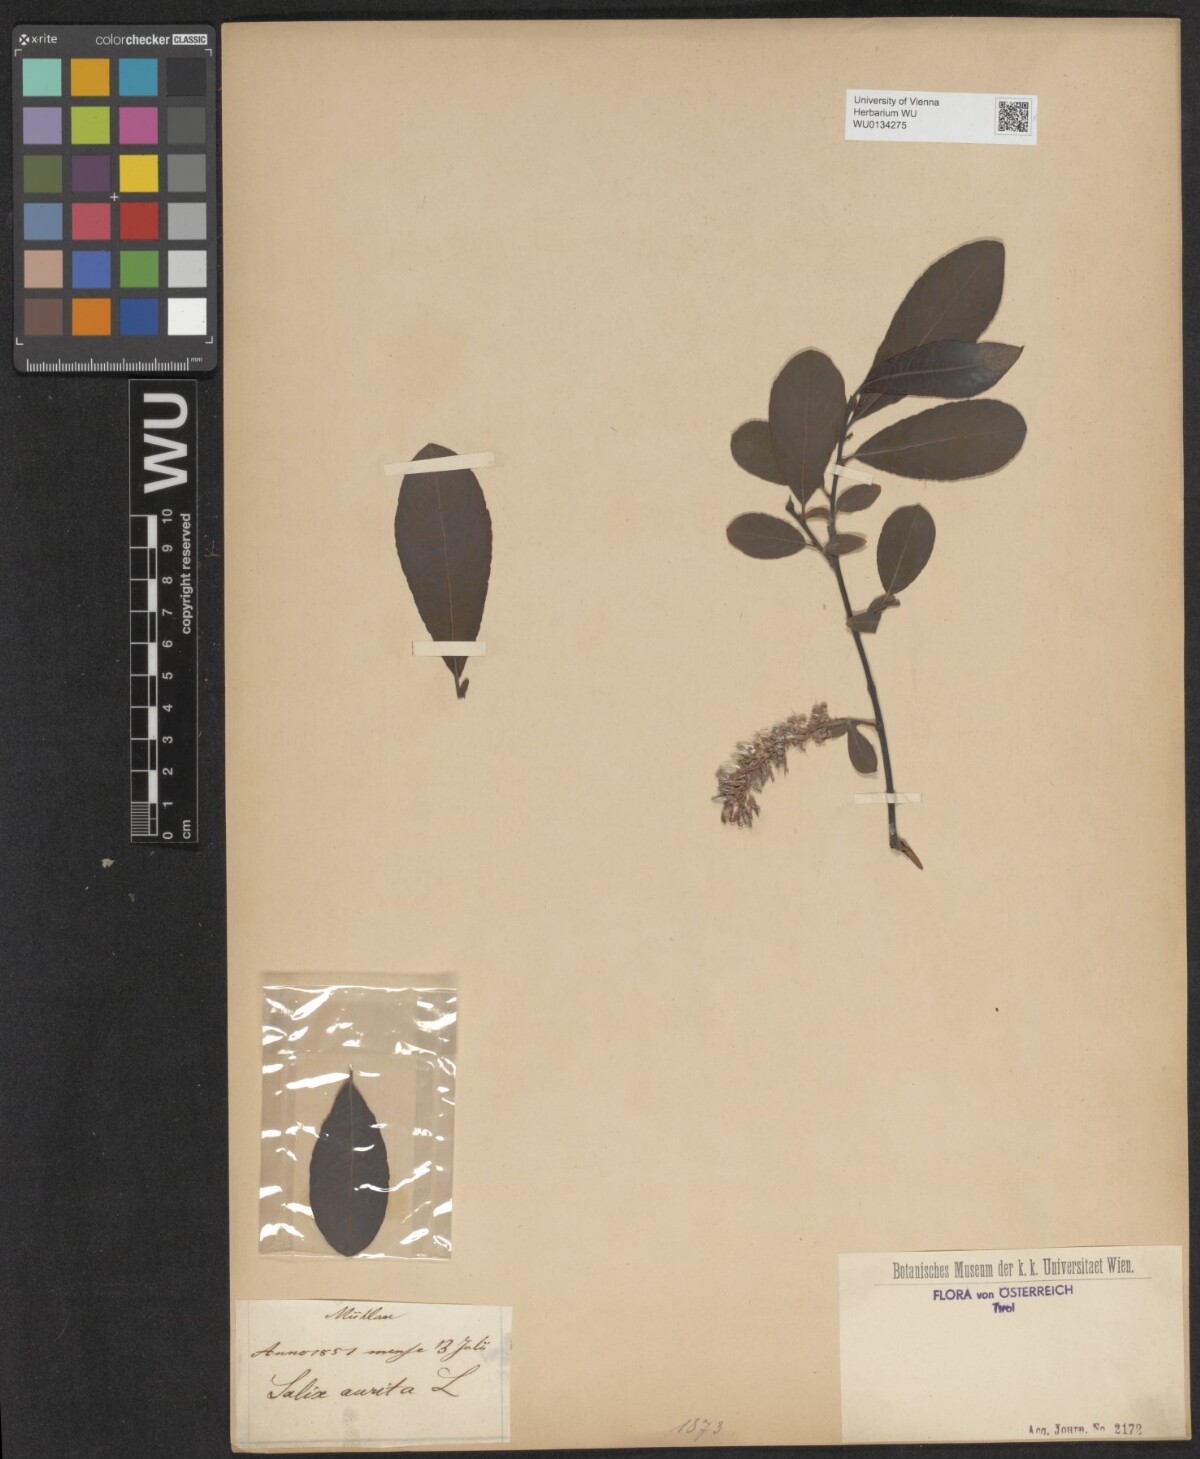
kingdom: Plantae
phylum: Tracheophyta
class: Magnoliopsida
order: Malpighiales
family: Salicaceae
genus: Salix
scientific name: Salix aurita
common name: Eared willow
